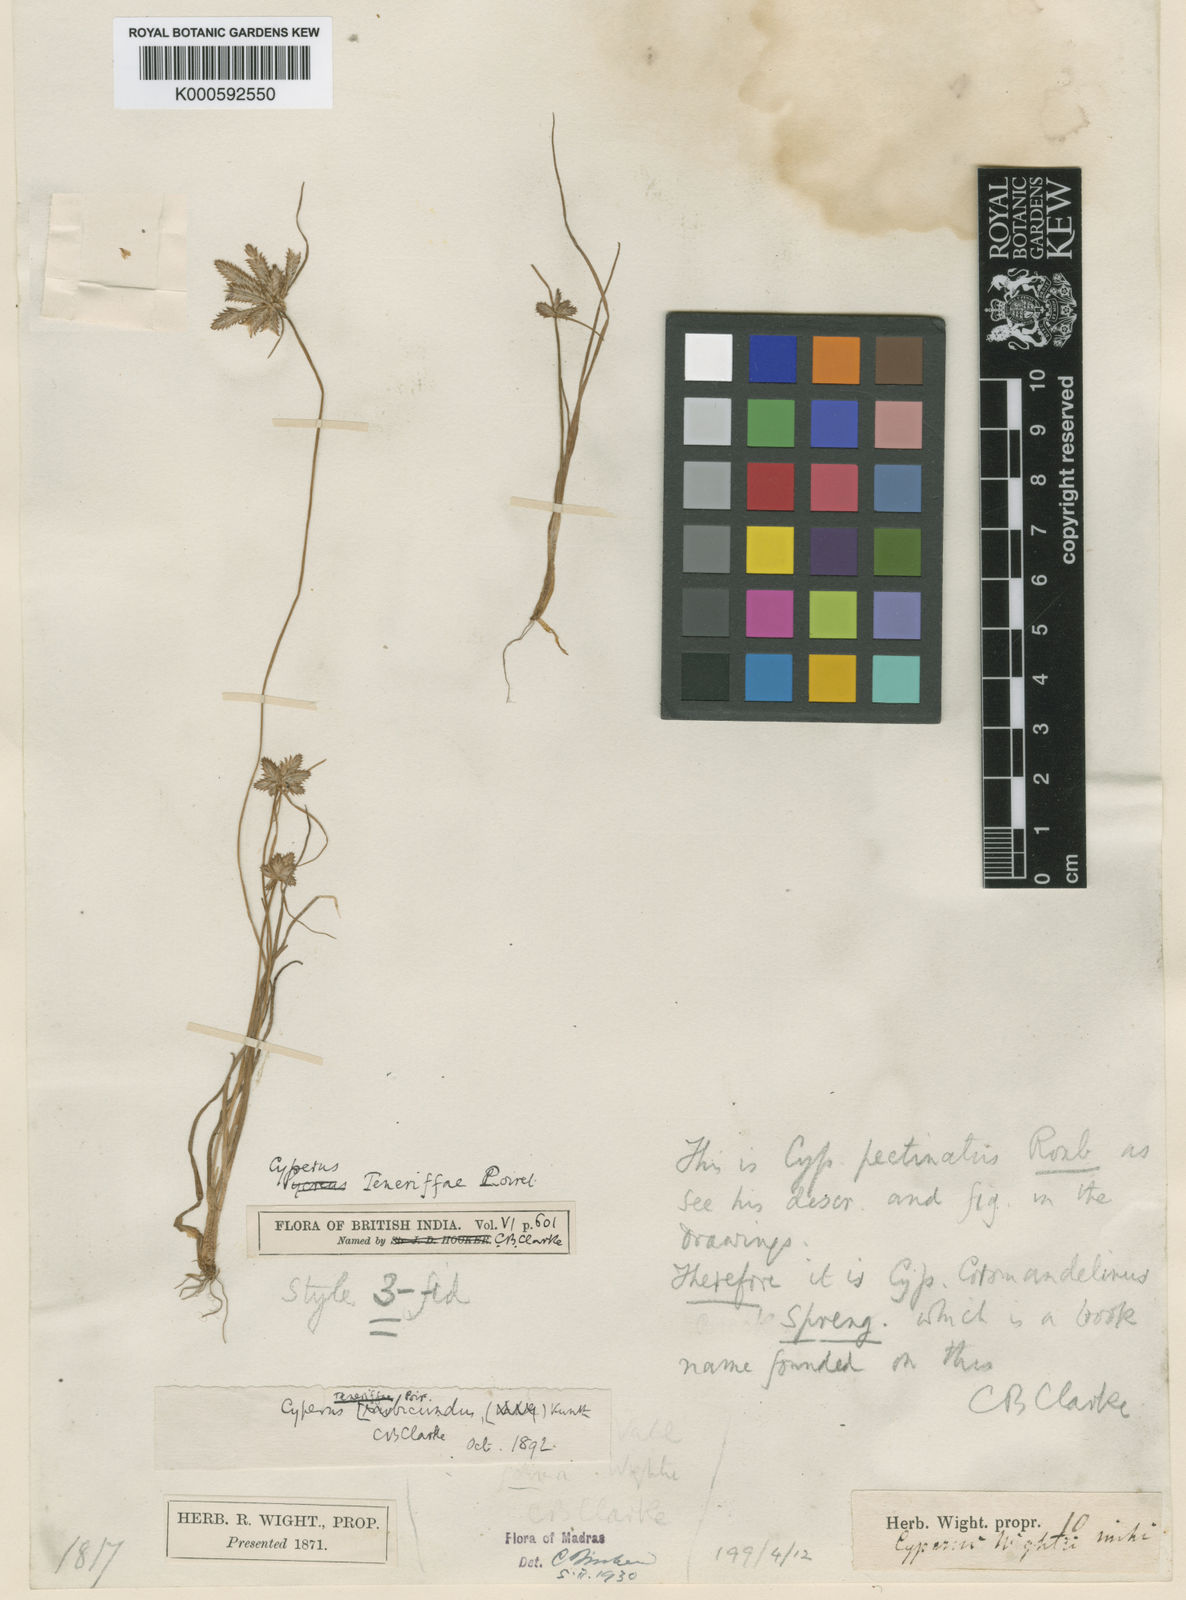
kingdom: Plantae
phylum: Tracheophyta
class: Liliopsida
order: Poales
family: Cyperaceae
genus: Cyperus
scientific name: Cyperus rubicundus
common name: Coco-grass
